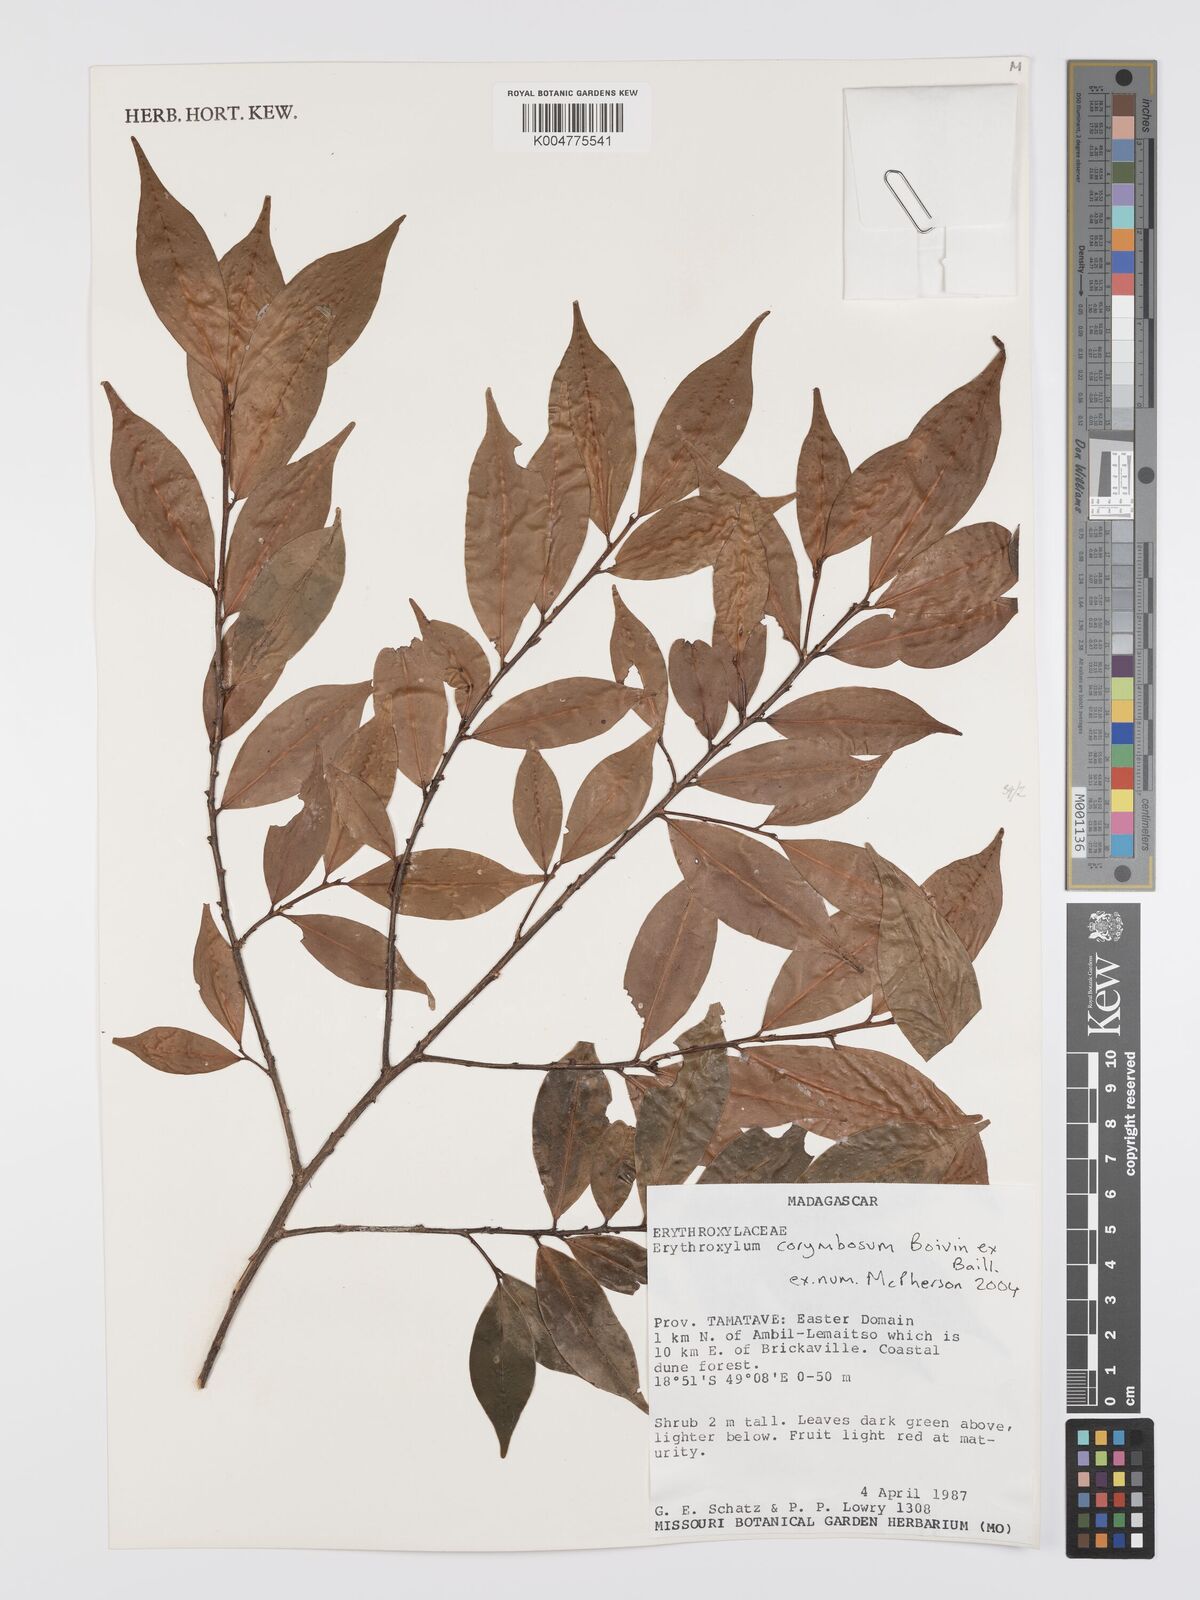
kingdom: Plantae
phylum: Tracheophyta
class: Magnoliopsida
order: Malpighiales
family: Erythroxylaceae
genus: Erythroxylum
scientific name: Erythroxylum corymbosum
